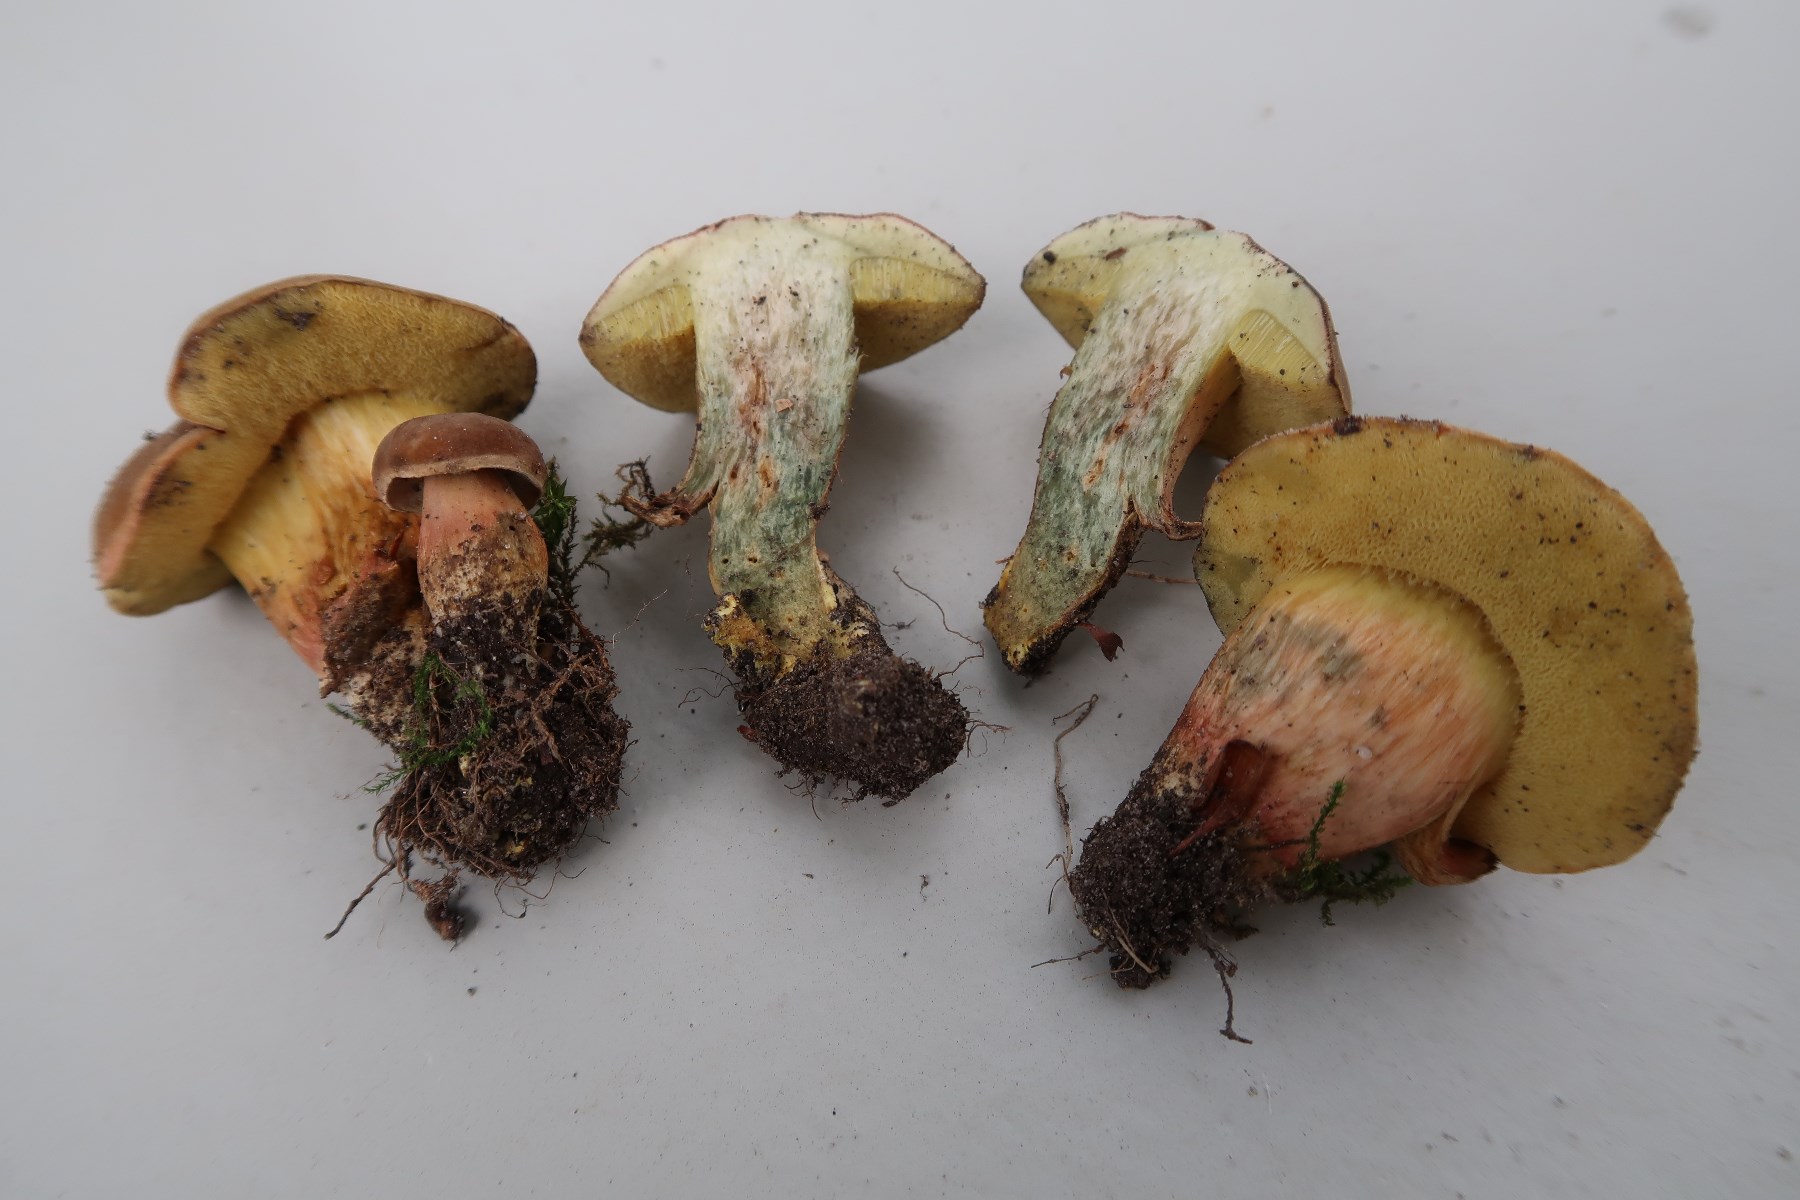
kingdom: Fungi
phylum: Basidiomycota
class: Agaricomycetes
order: Boletales
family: Boletaceae
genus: Hortiboletus
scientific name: Hortiboletus engelii
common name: fersken-rørhat
